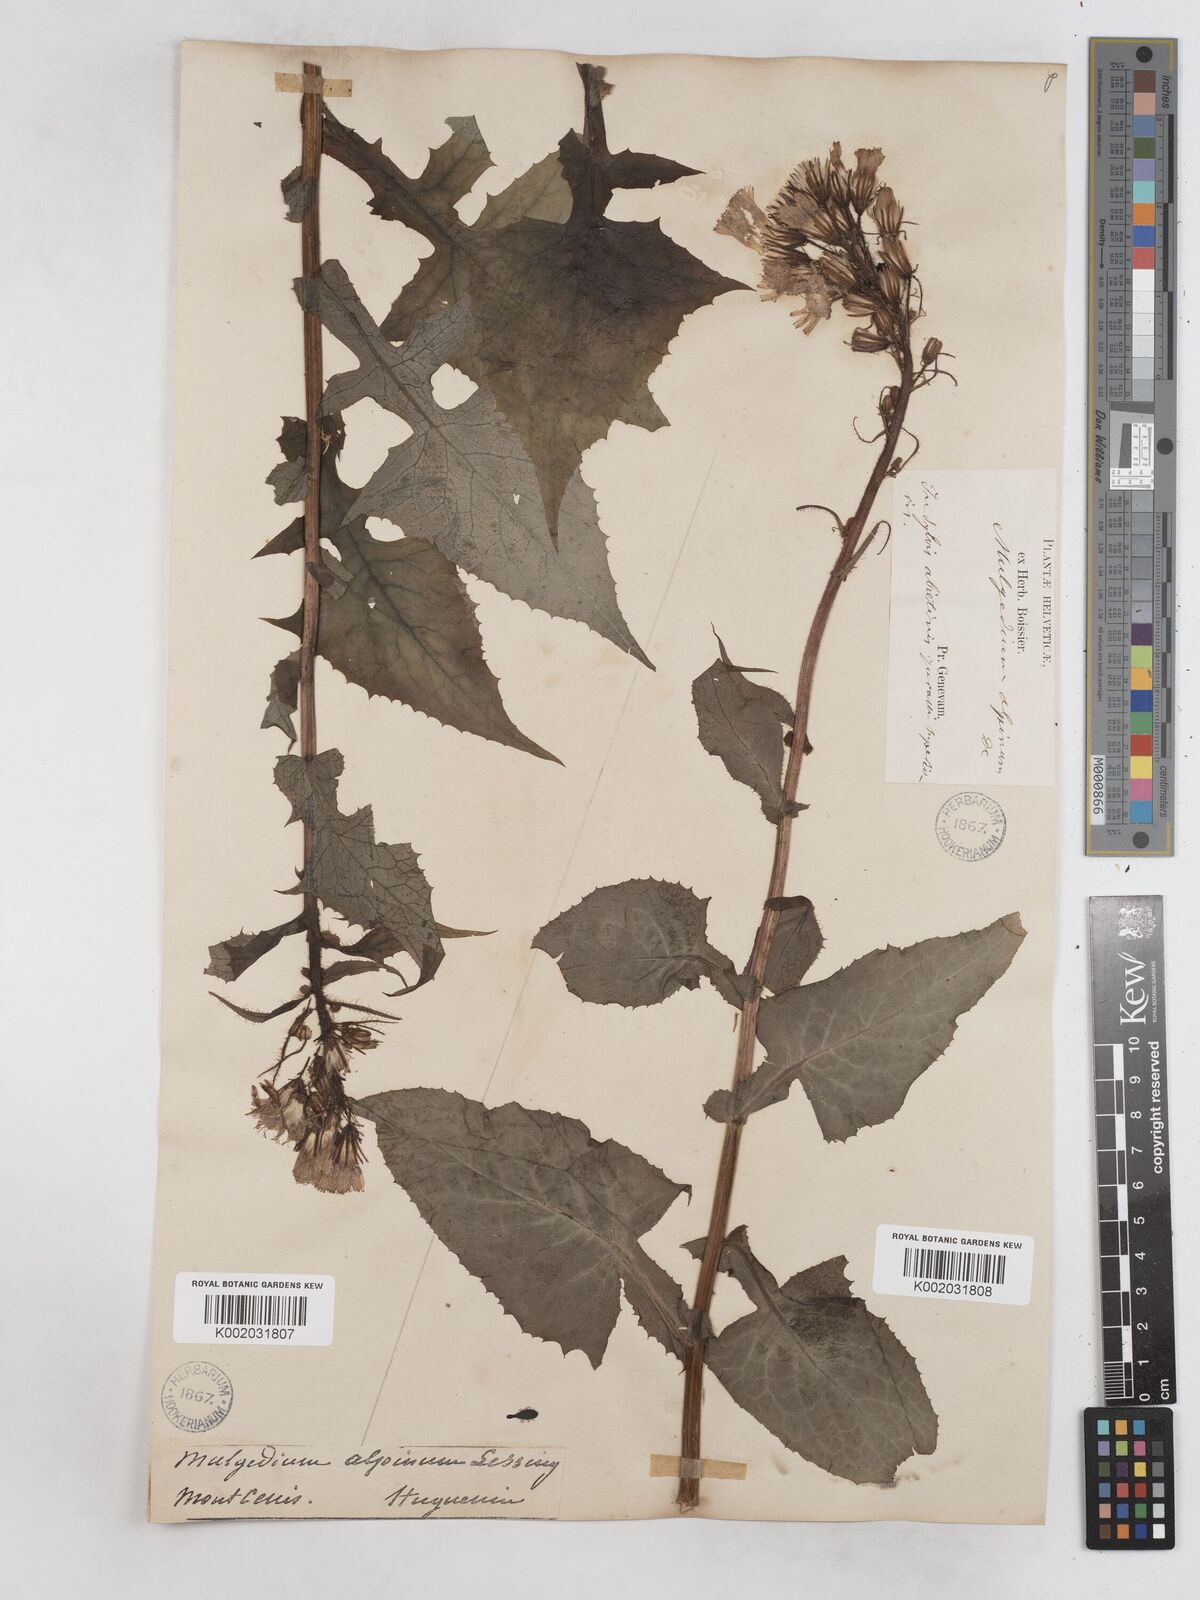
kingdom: Plantae
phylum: Tracheophyta
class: Magnoliopsida
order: Asterales
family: Asteraceae
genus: Cicerbita
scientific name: Cicerbita alpina
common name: Alpine blue-sow-thistle
